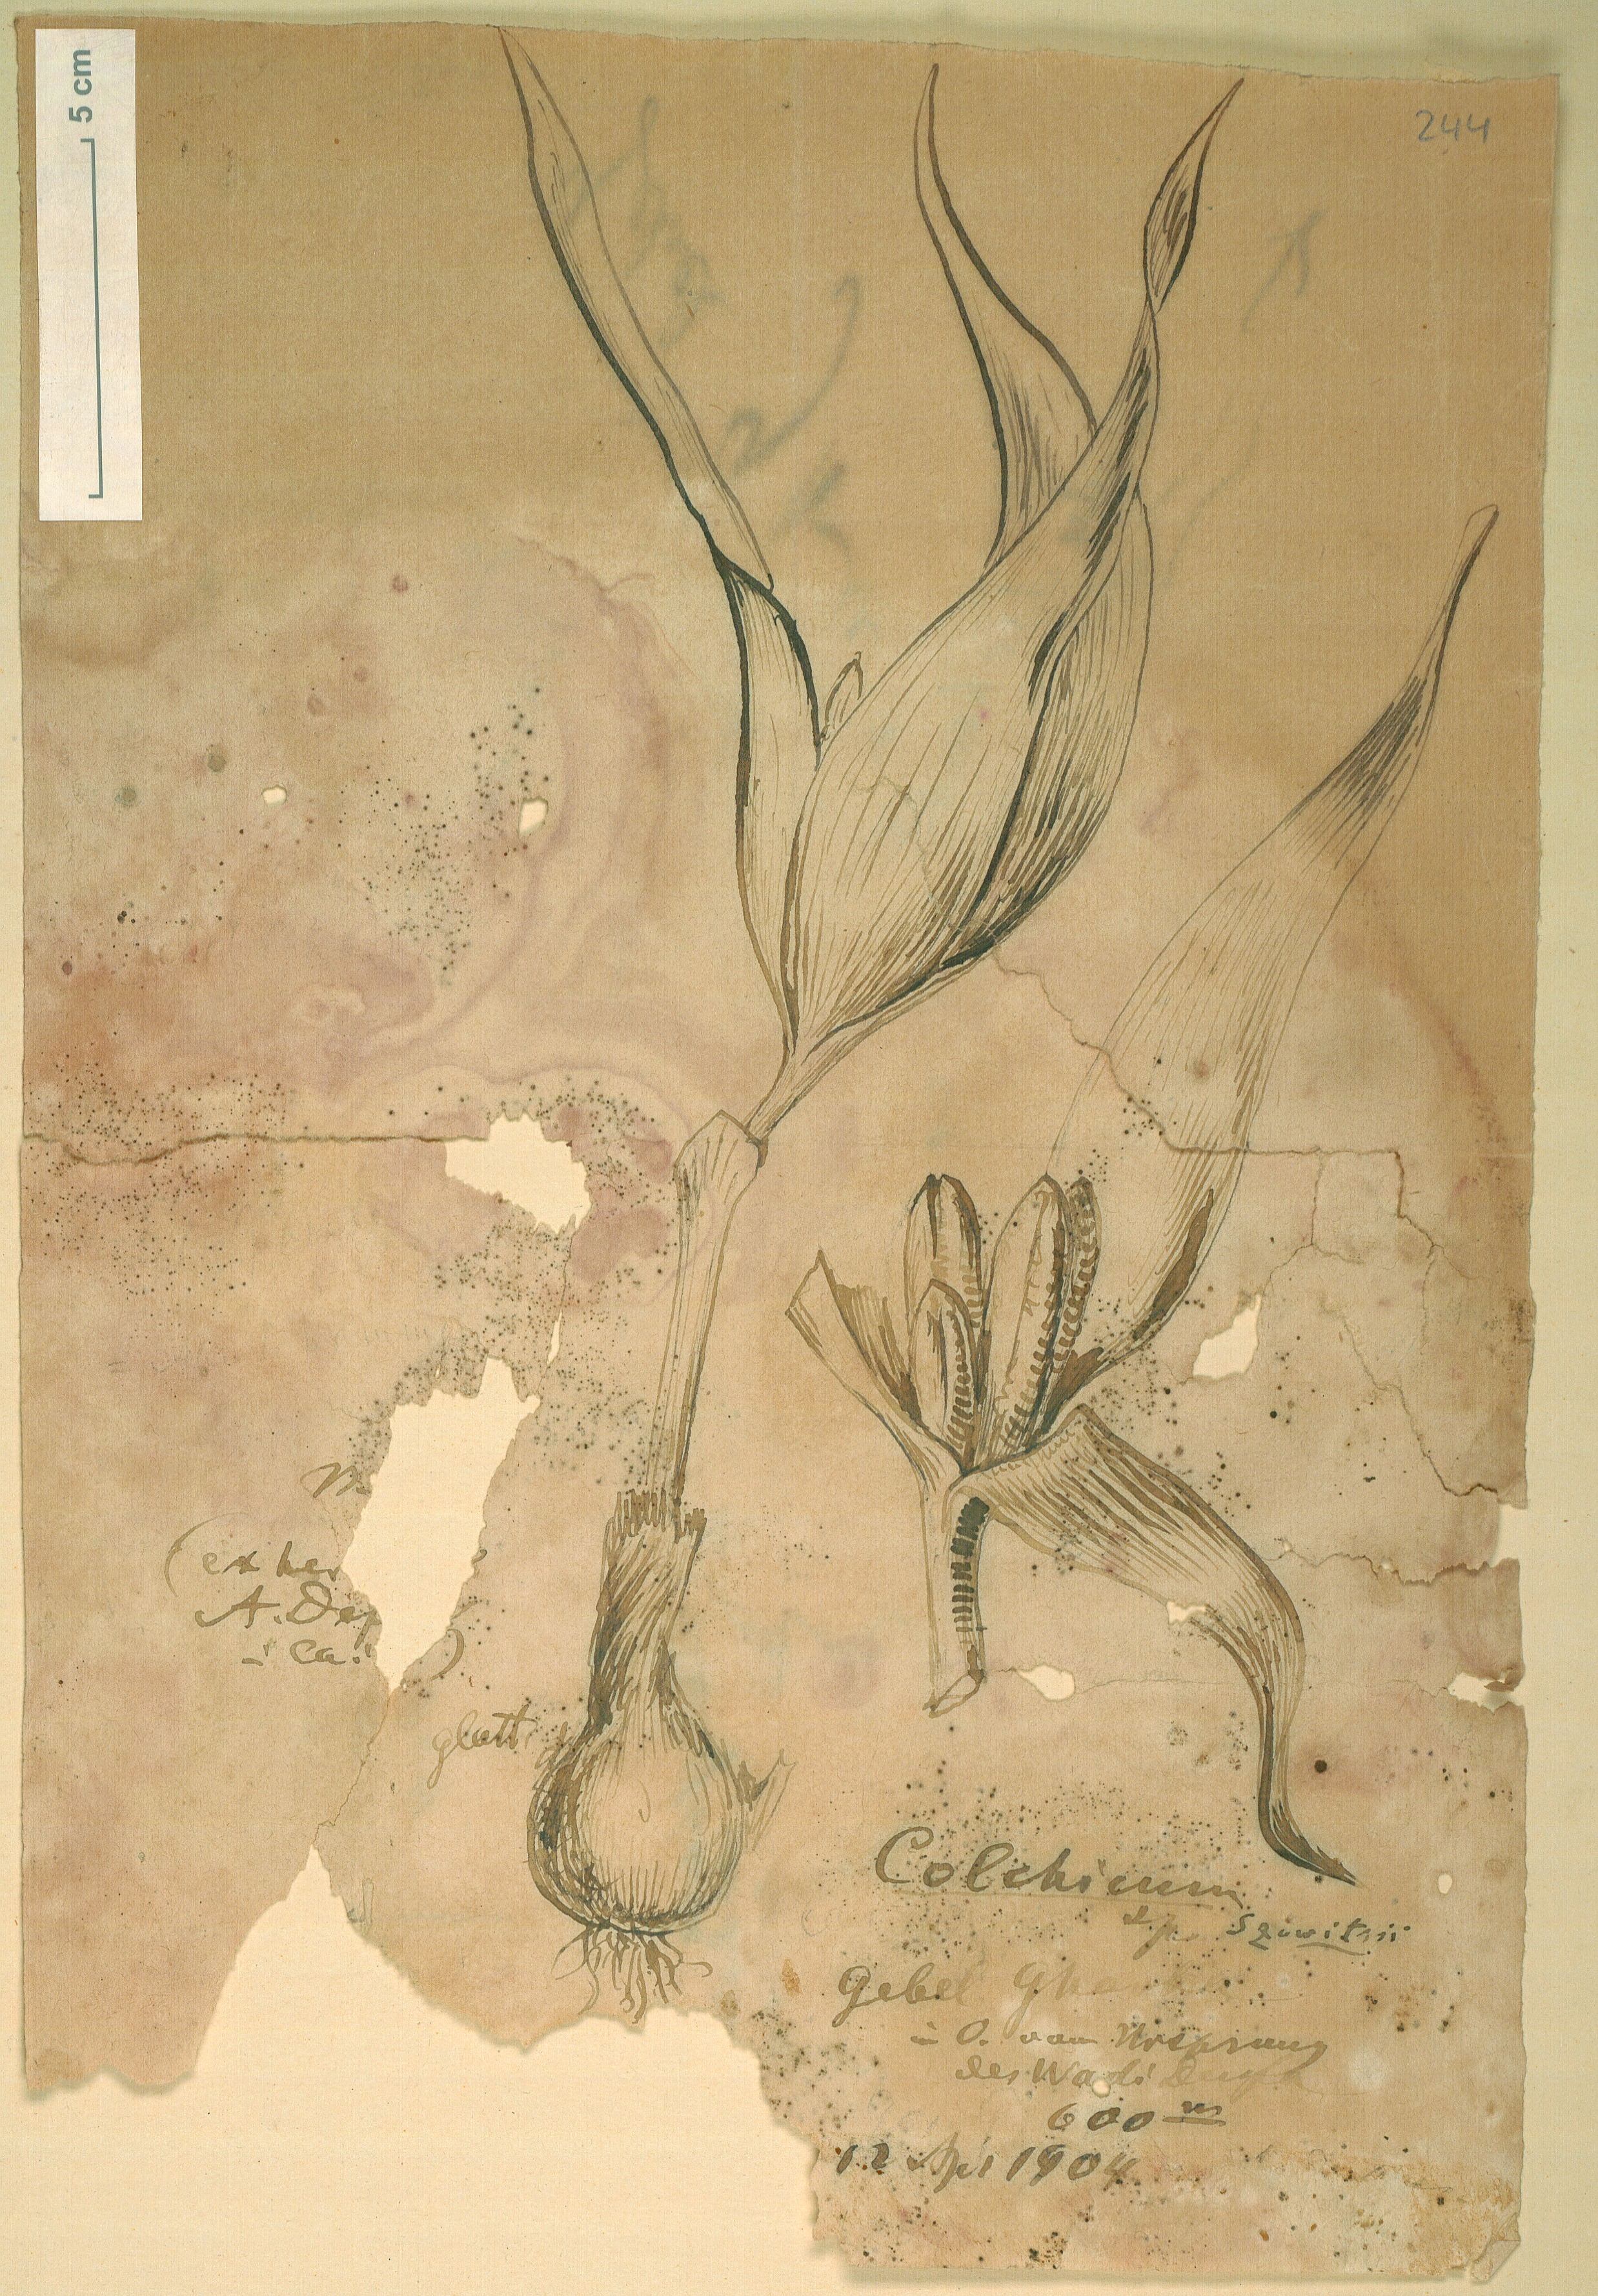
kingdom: Plantae
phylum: Tracheophyta
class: Liliopsida
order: Liliales
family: Colchicaceae
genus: Colchicum
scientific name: Colchicum szovitsii
